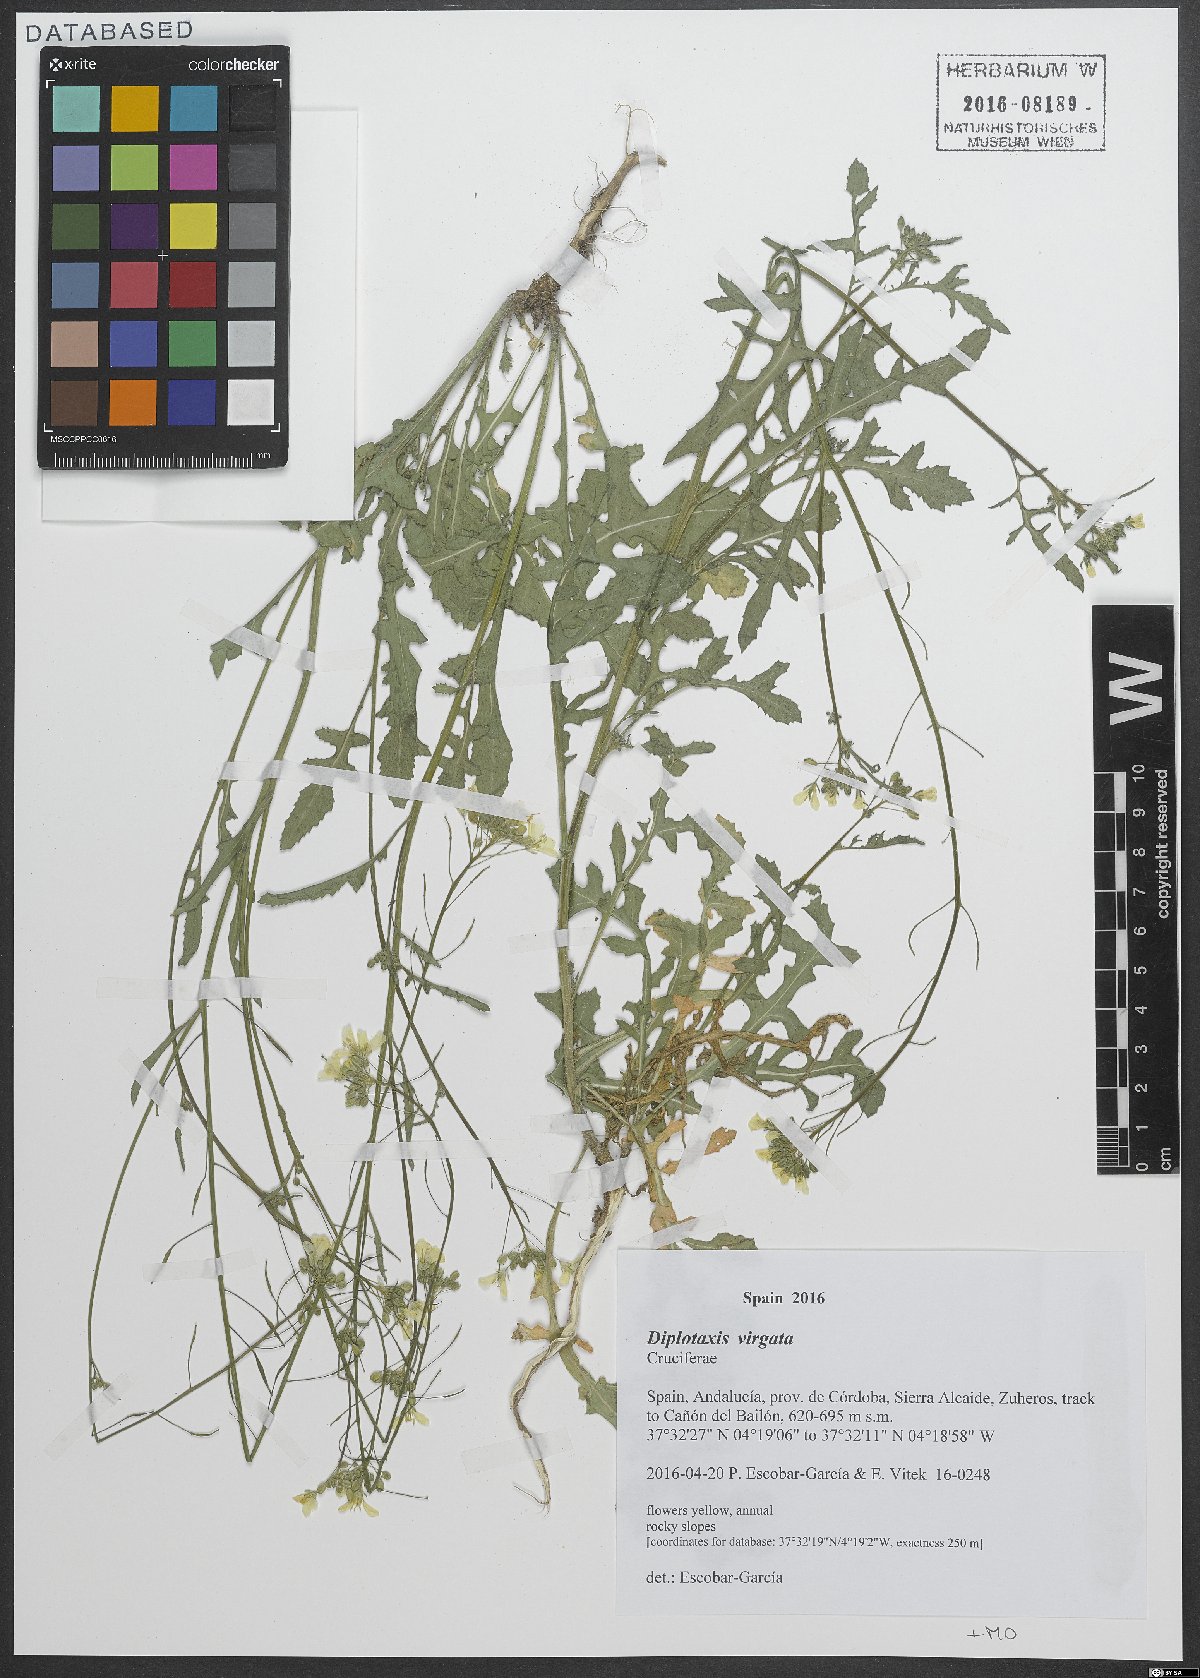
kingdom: Plantae
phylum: Tracheophyta
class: Magnoliopsida
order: Brassicales
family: Brassicaceae
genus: Diplotaxis
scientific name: Diplotaxis virgata
